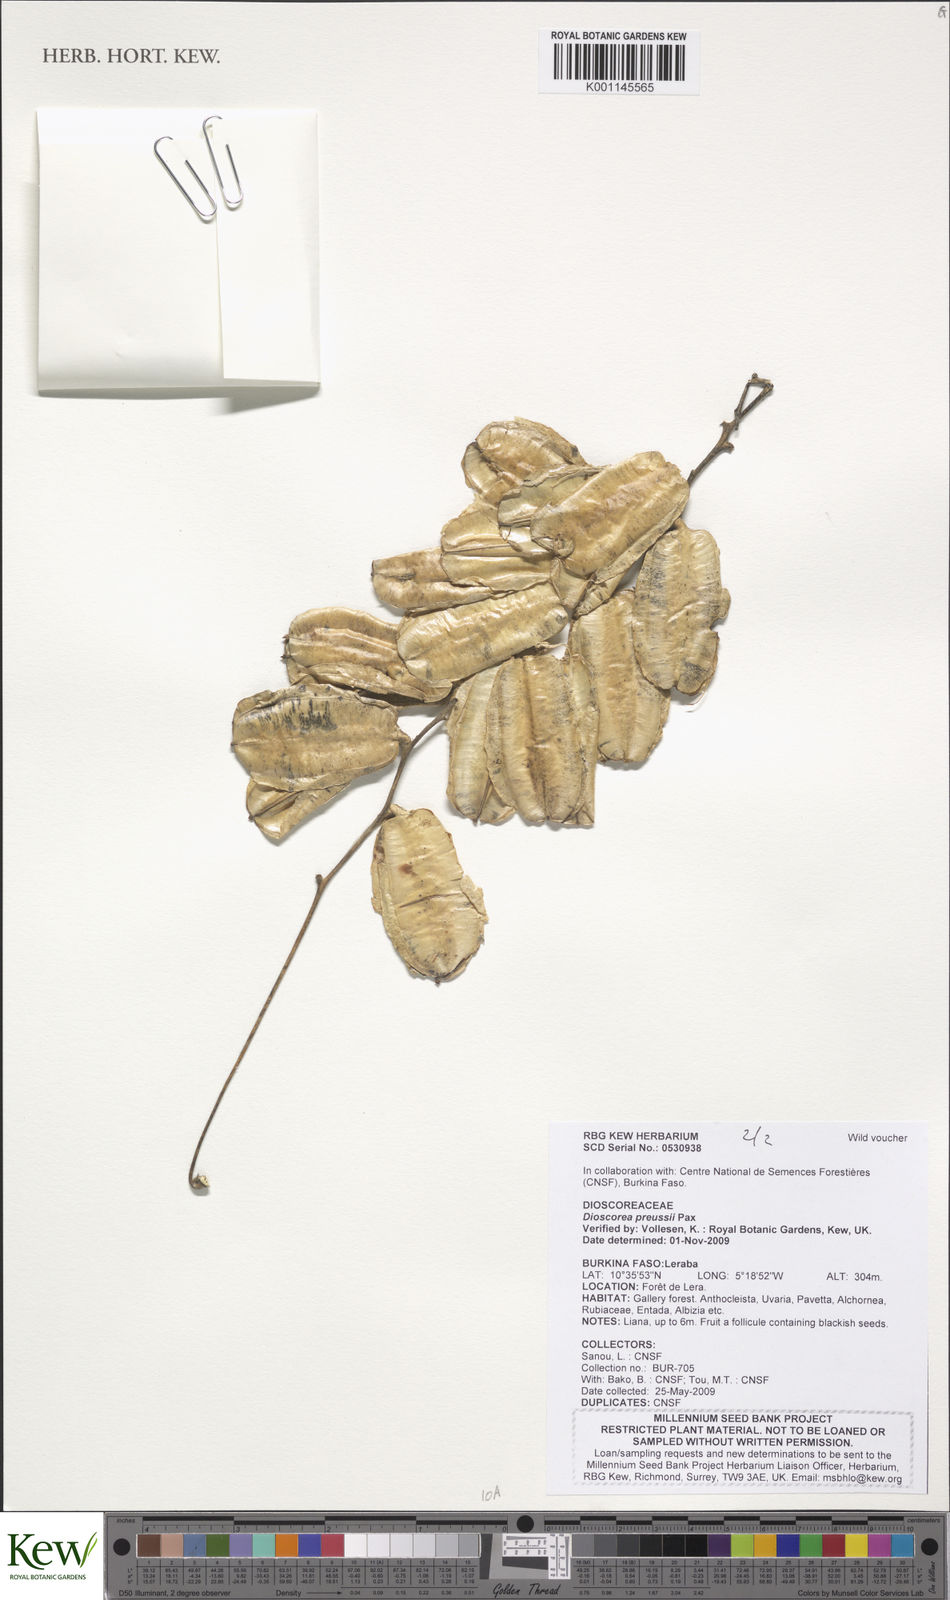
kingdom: Plantae
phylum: Tracheophyta
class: Liliopsida
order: Dioscoreales
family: Dioscoreaceae
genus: Dioscorea
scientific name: Dioscorea preussii
